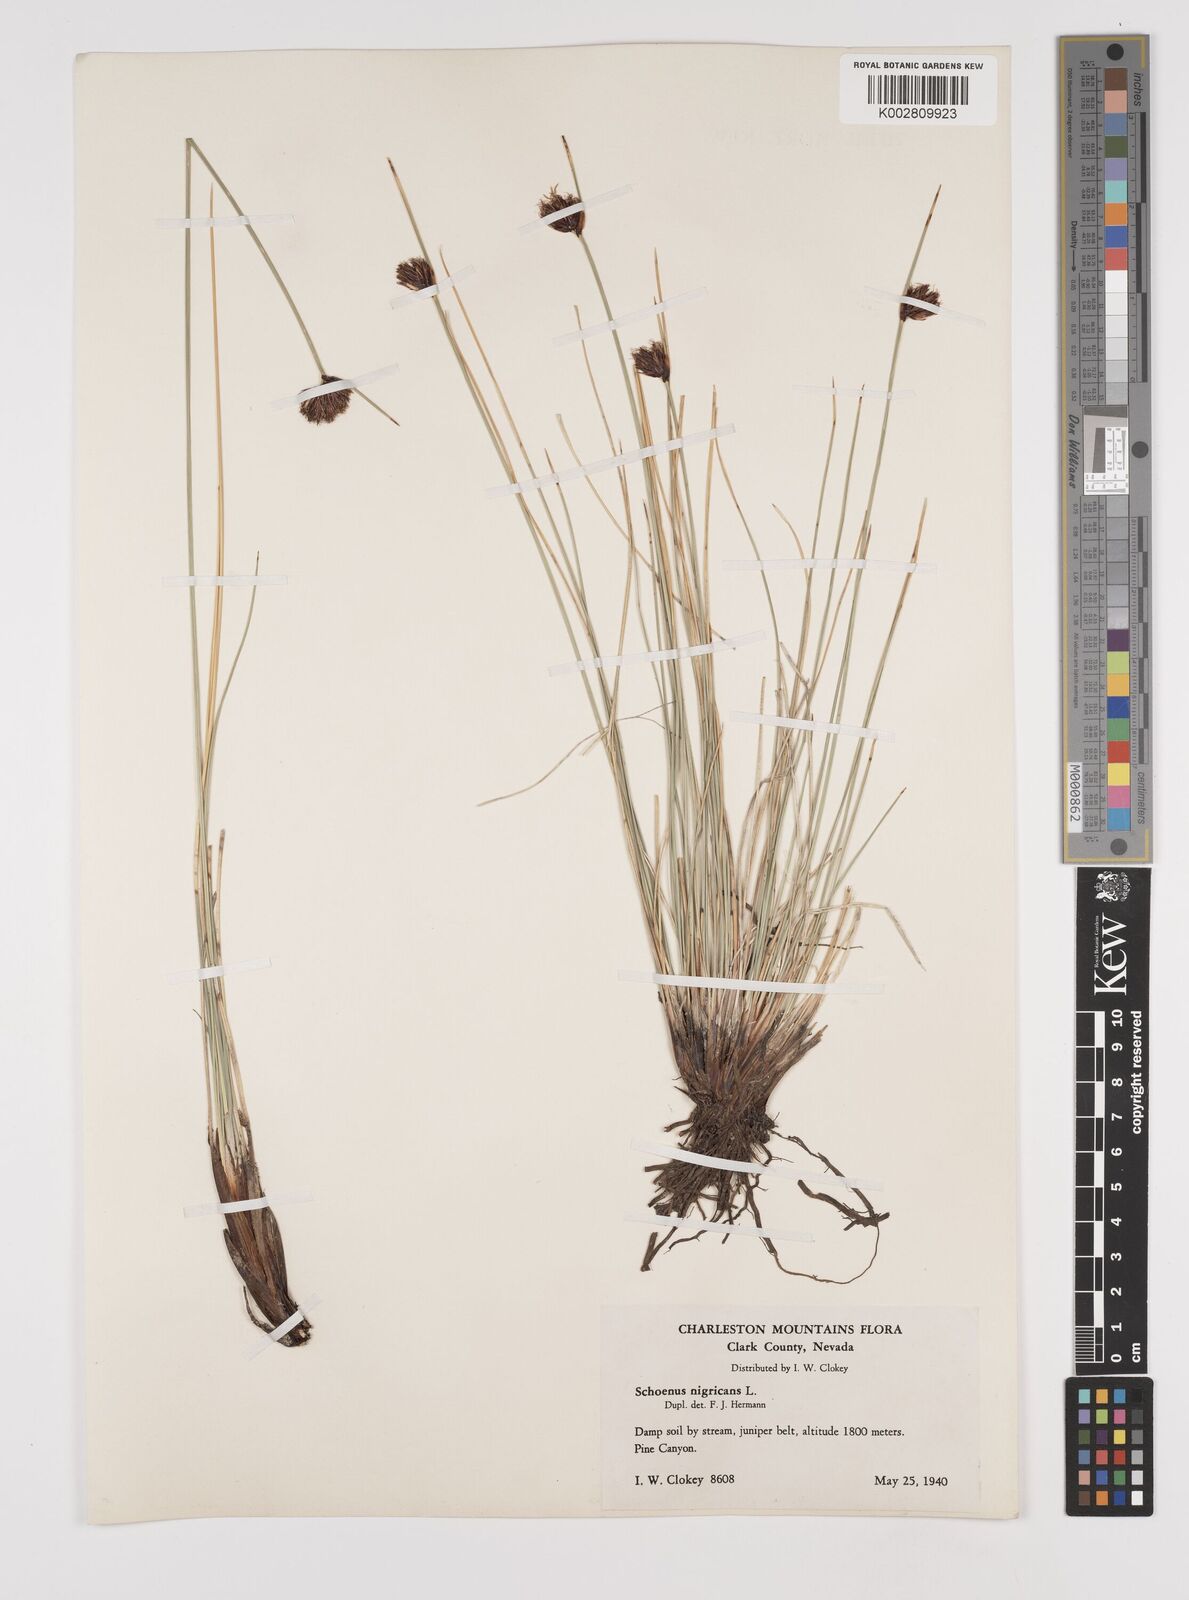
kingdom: Plantae
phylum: Tracheophyta
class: Liliopsida
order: Poales
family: Cyperaceae
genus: Schoenus
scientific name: Schoenus nigricans
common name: Black bog-rush
